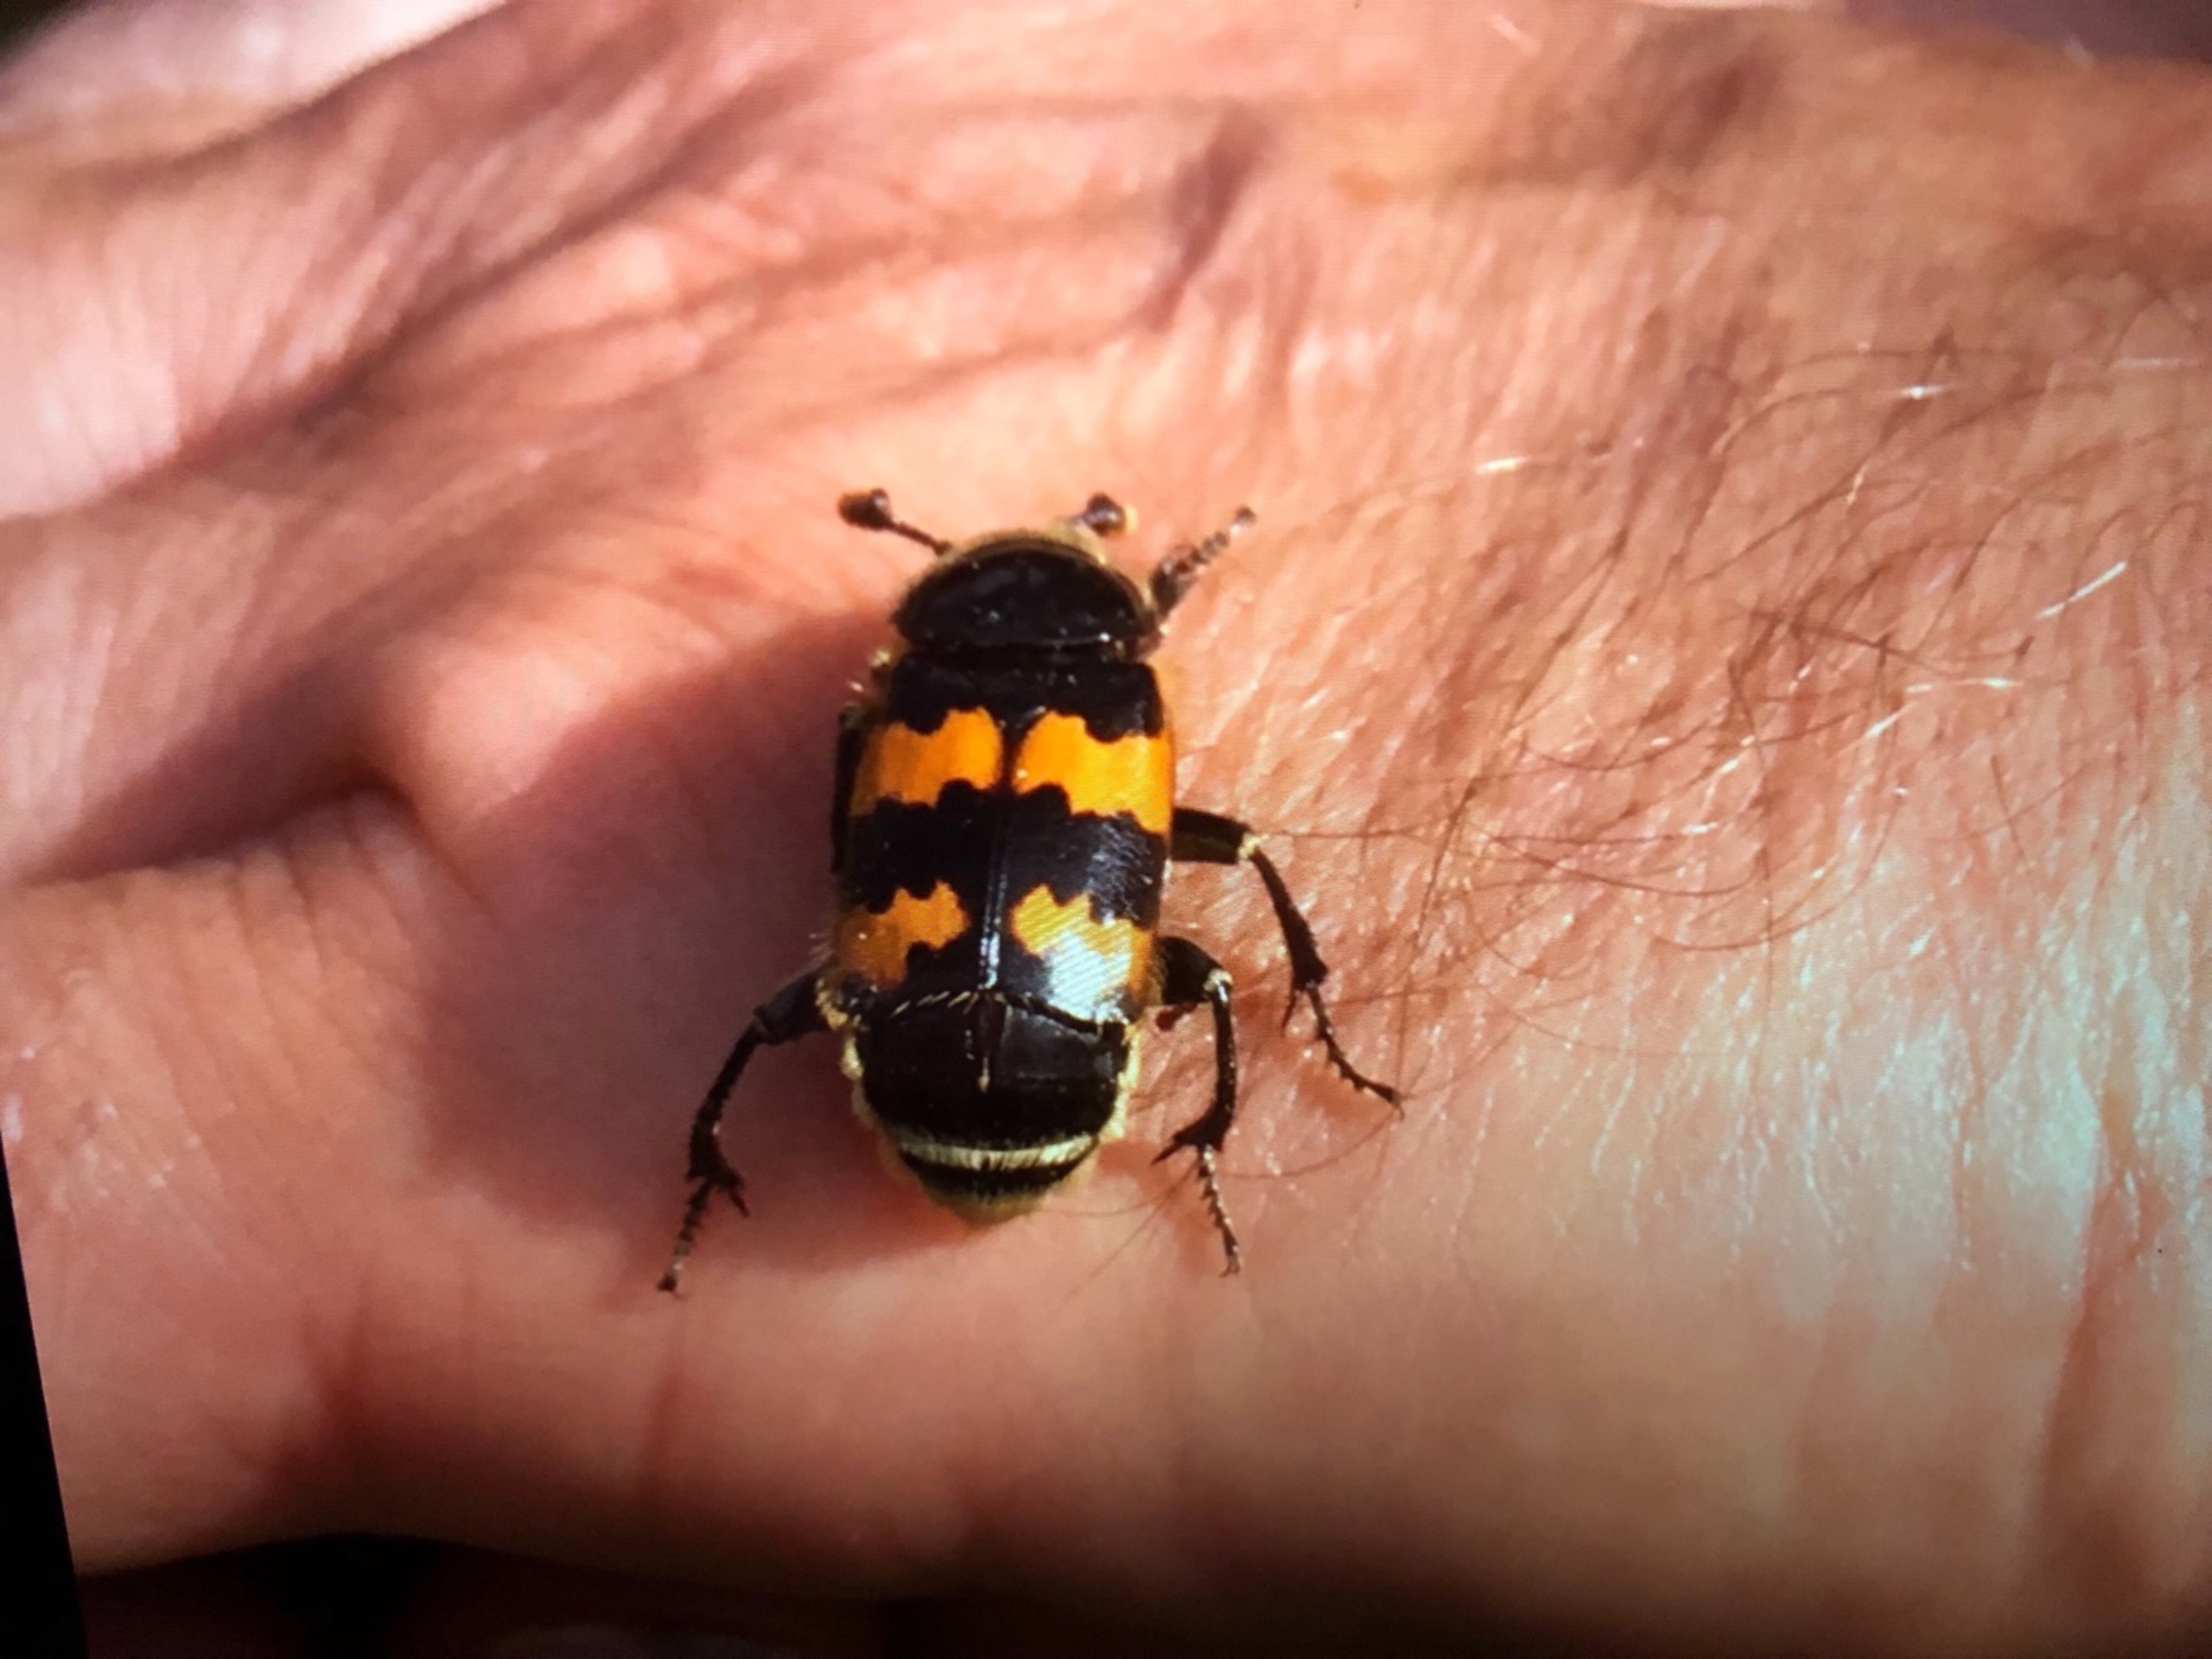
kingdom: Animalia
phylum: Arthropoda
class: Insecta
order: Coleoptera
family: Staphylinidae
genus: Nicrophorus
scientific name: Nicrophorus vespillo
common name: Krumbenet ådselgraver
